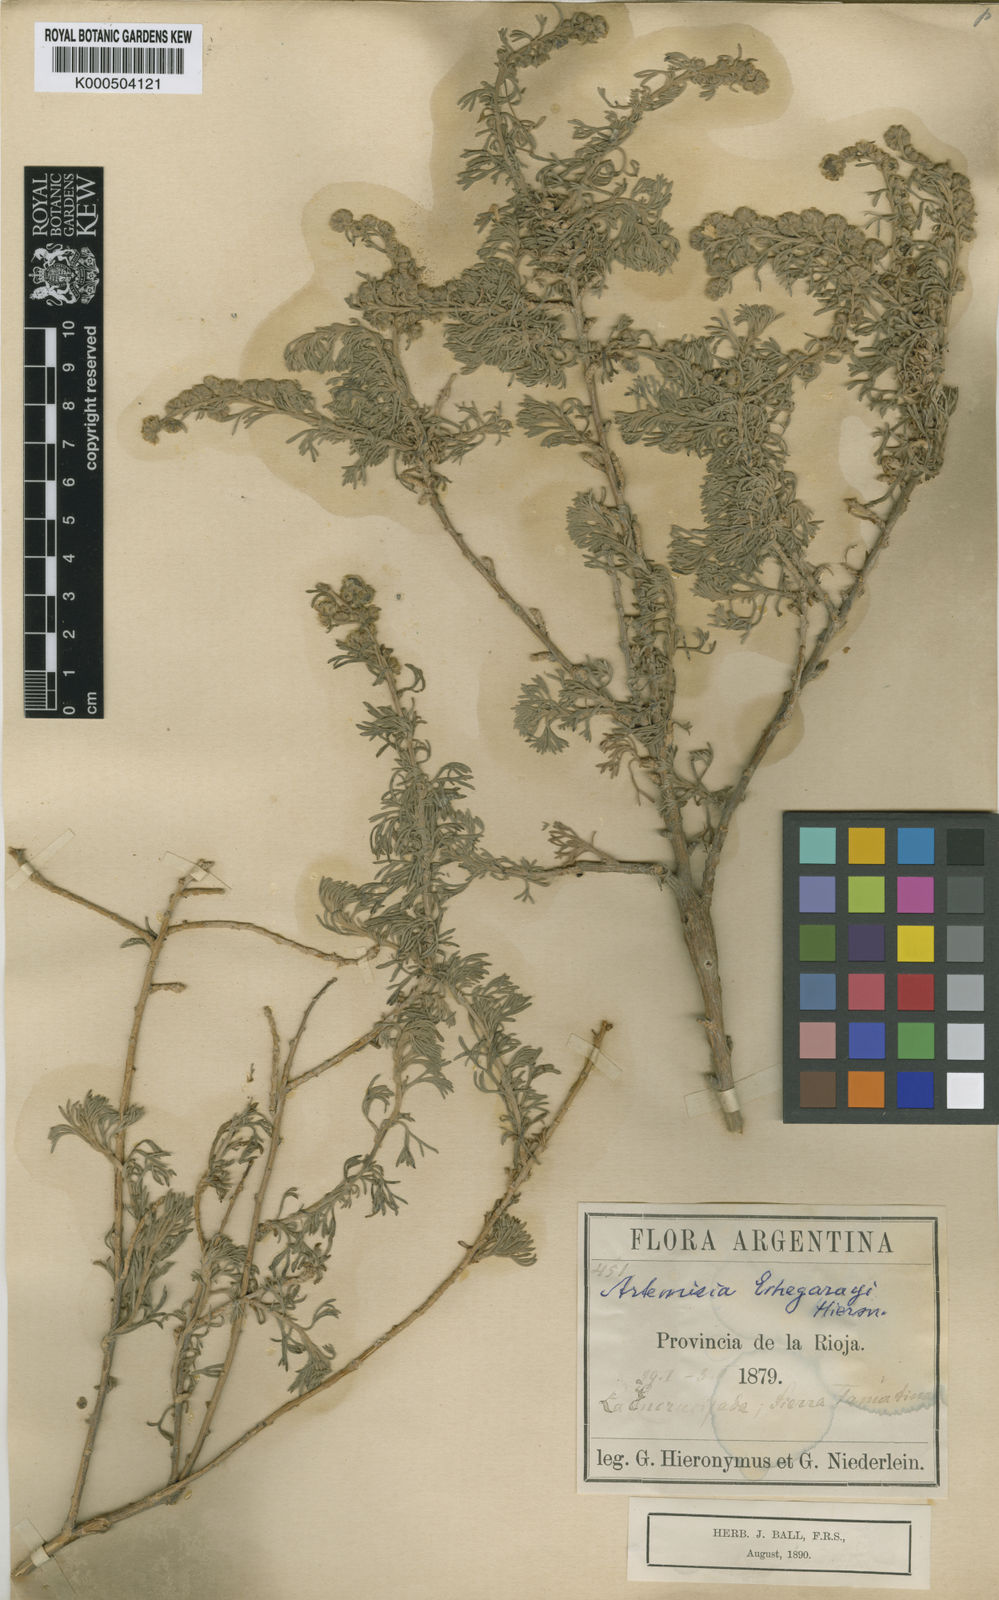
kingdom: Plantae
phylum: Tracheophyta
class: Magnoliopsida
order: Asterales
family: Asteraceae
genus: Artemisia
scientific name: Artemisia echegarayi
